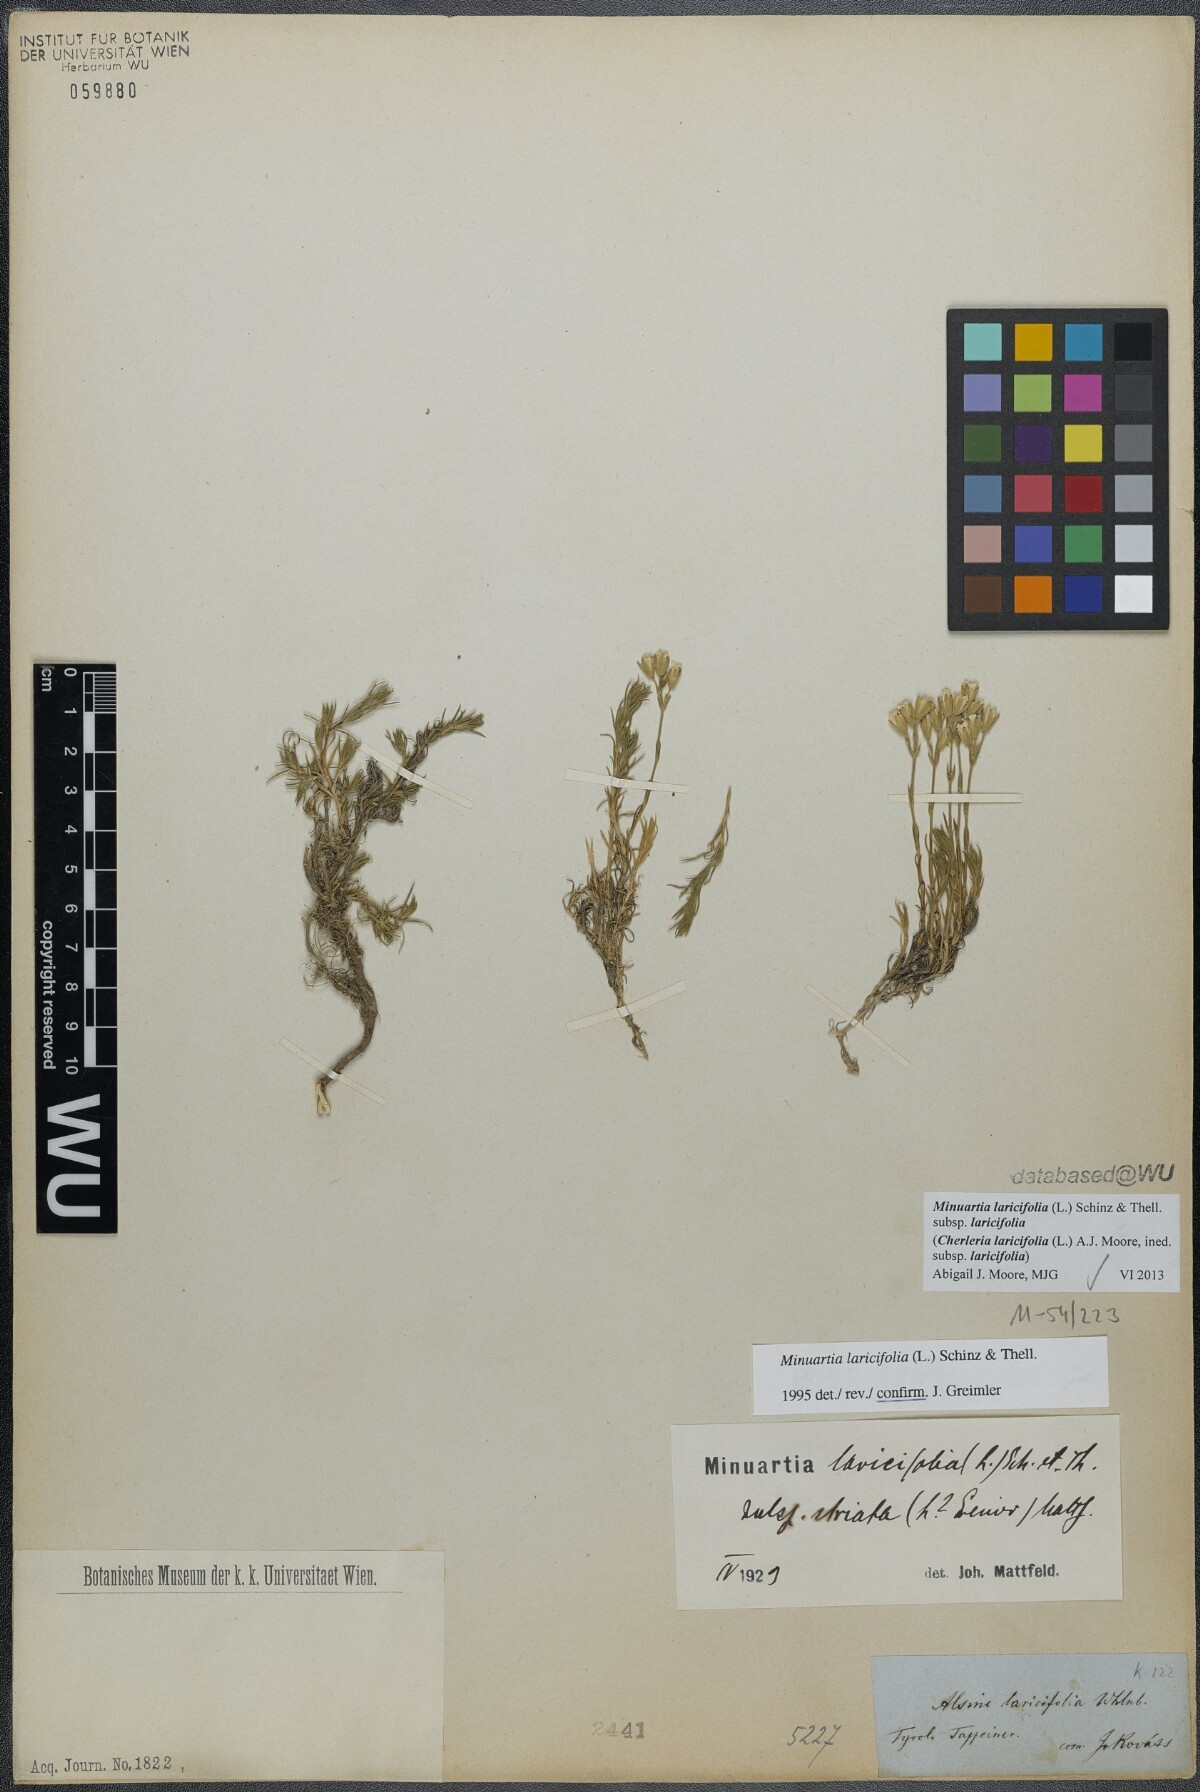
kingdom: Plantae
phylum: Tracheophyta
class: Magnoliopsida
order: Caryophyllales
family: Caryophyllaceae
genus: Cherleria
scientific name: Cherleria laricifolia
